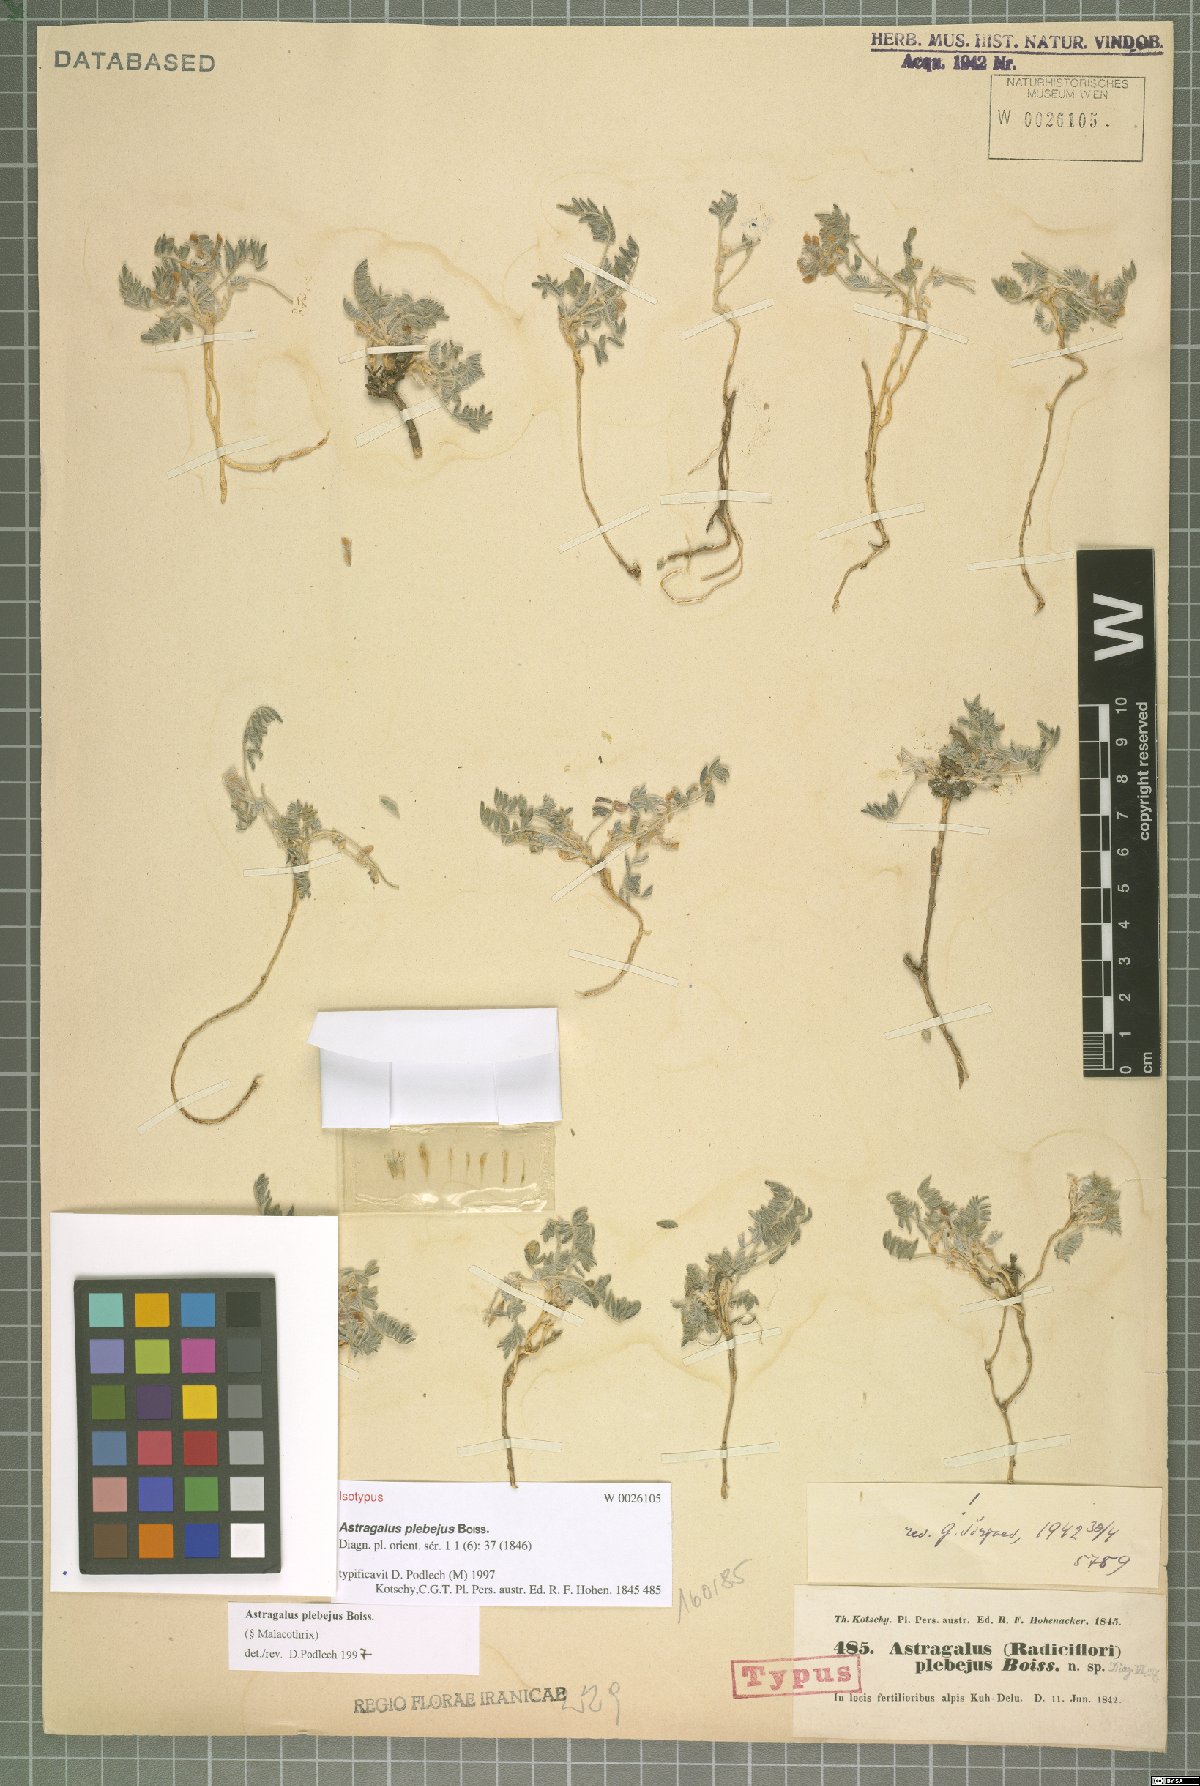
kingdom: Plantae
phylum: Tracheophyta
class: Magnoliopsida
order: Fabales
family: Fabaceae
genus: Astragalus
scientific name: Astragalus plebeius
